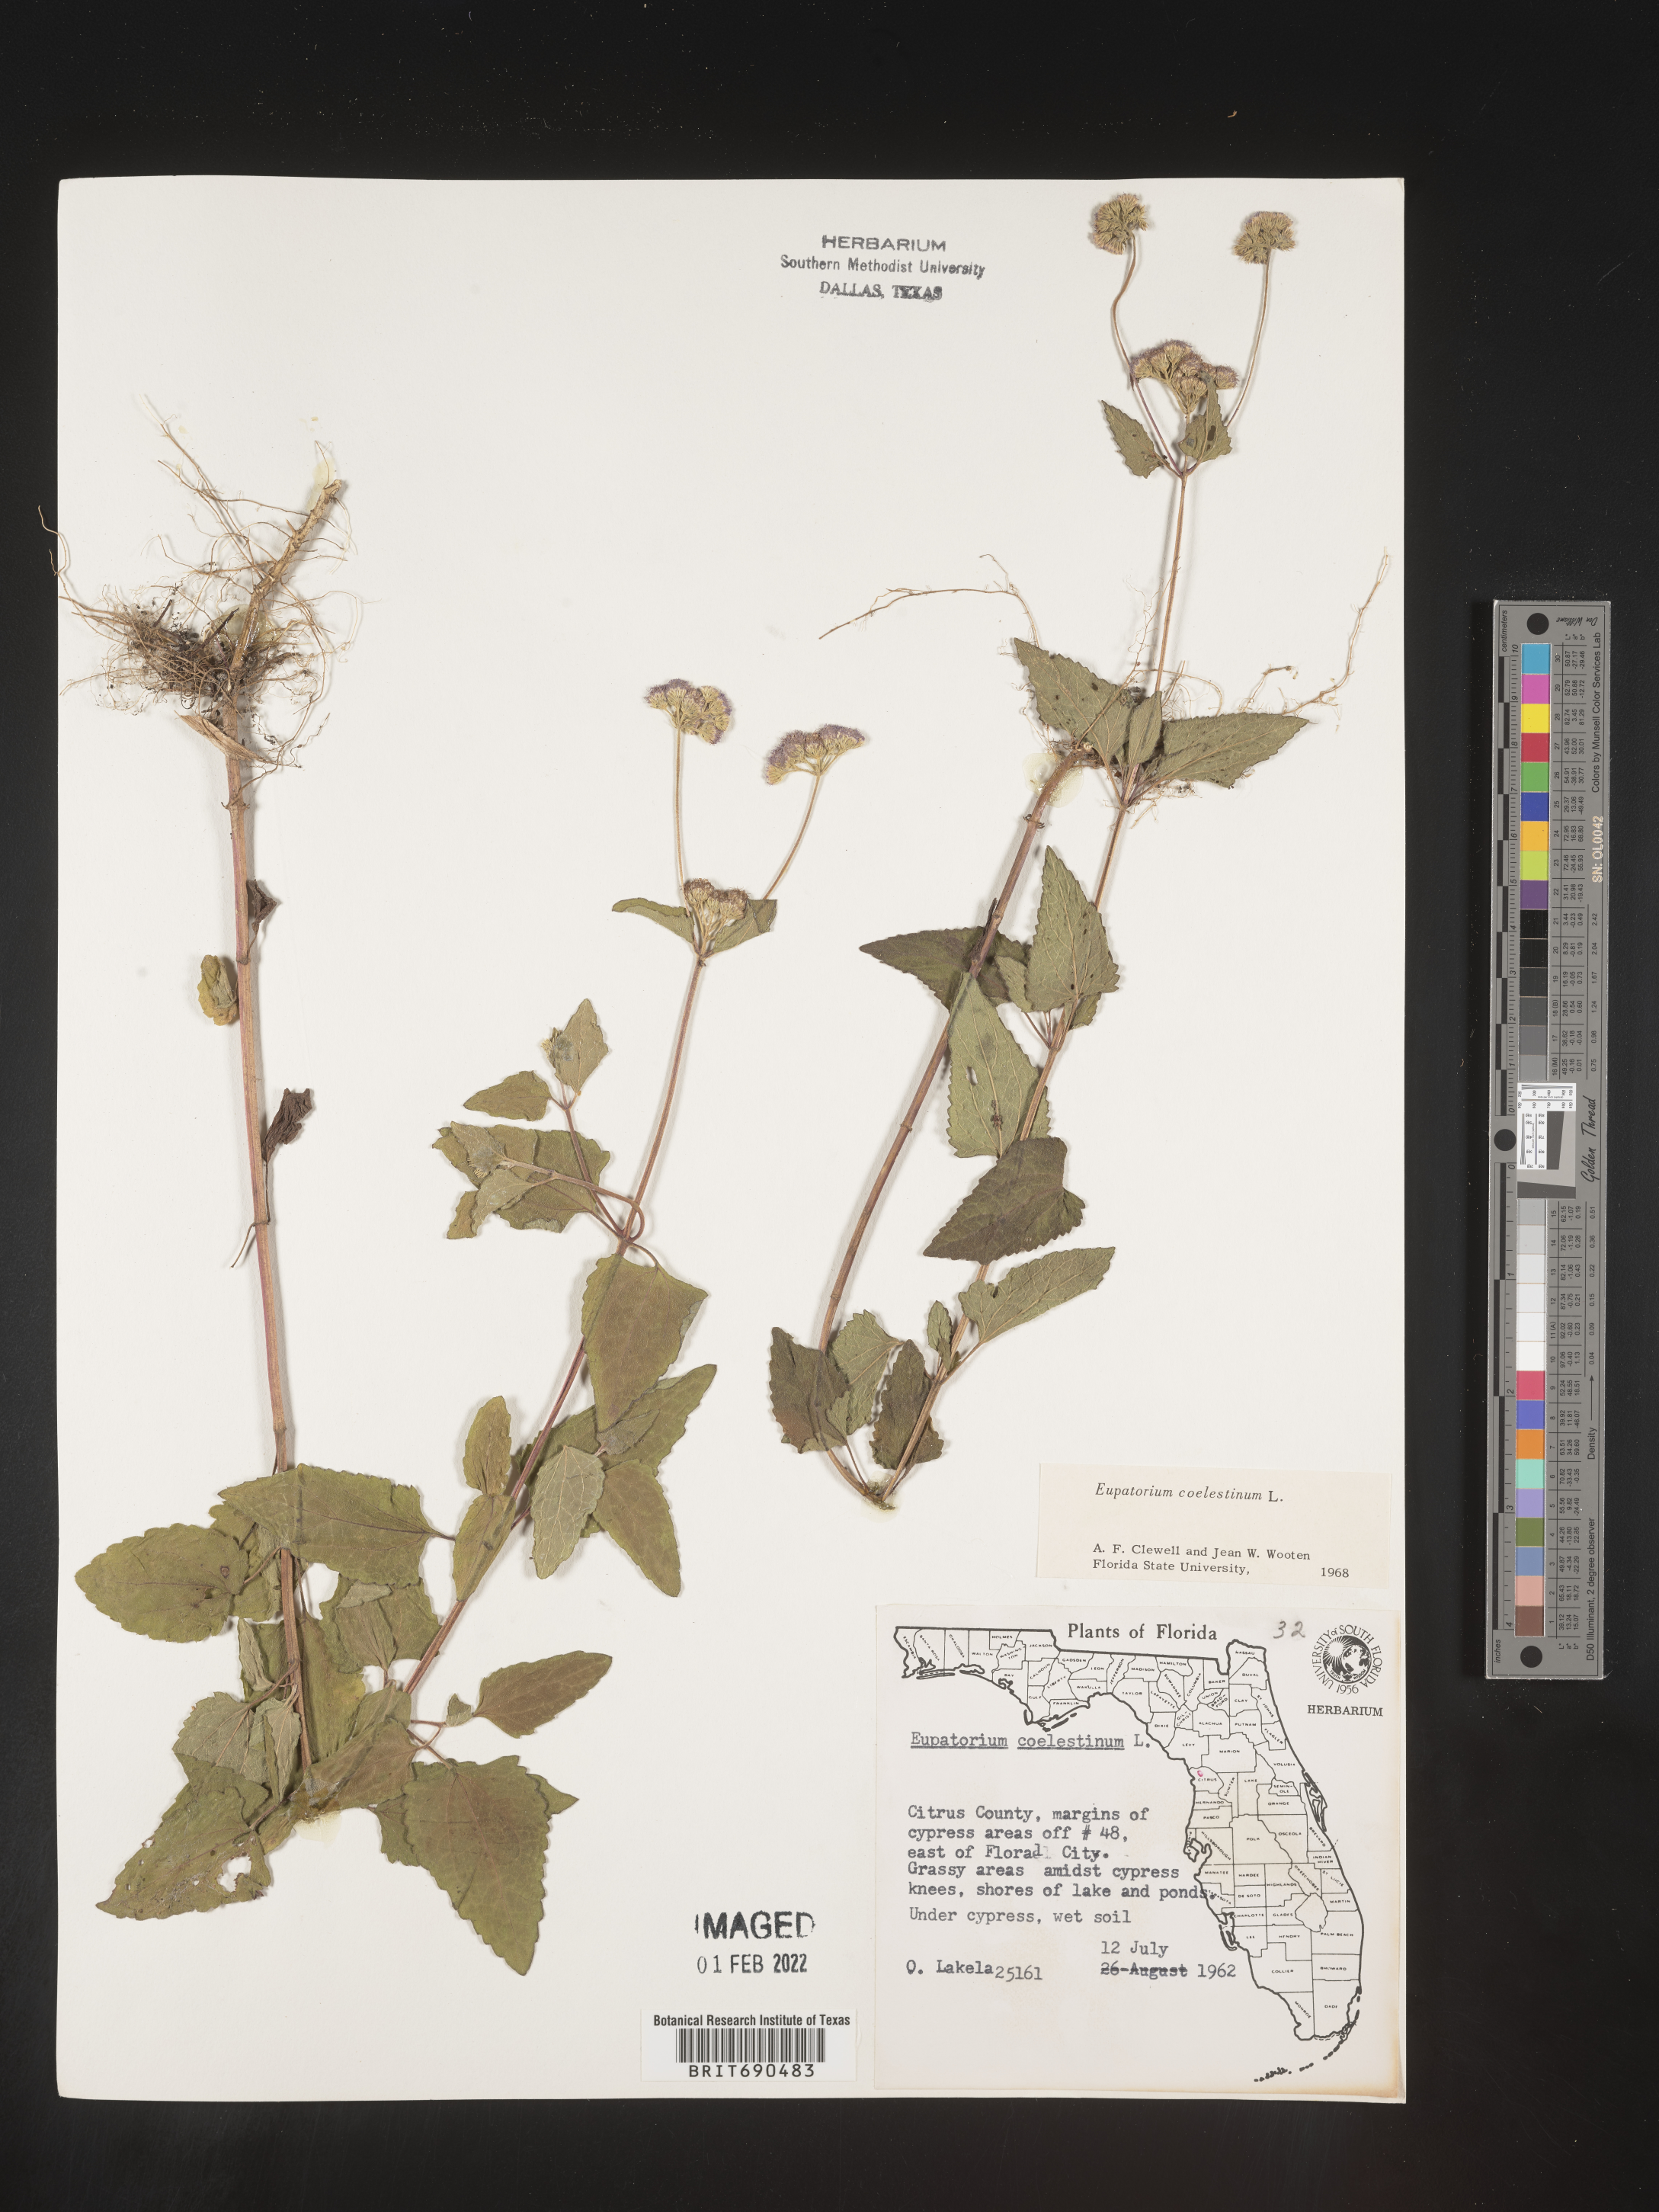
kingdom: Plantae
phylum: Tracheophyta
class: Magnoliopsida
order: Asterales
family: Asteraceae
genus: Conoclinium
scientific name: Conoclinium coelestinum
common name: Blue mistflower
